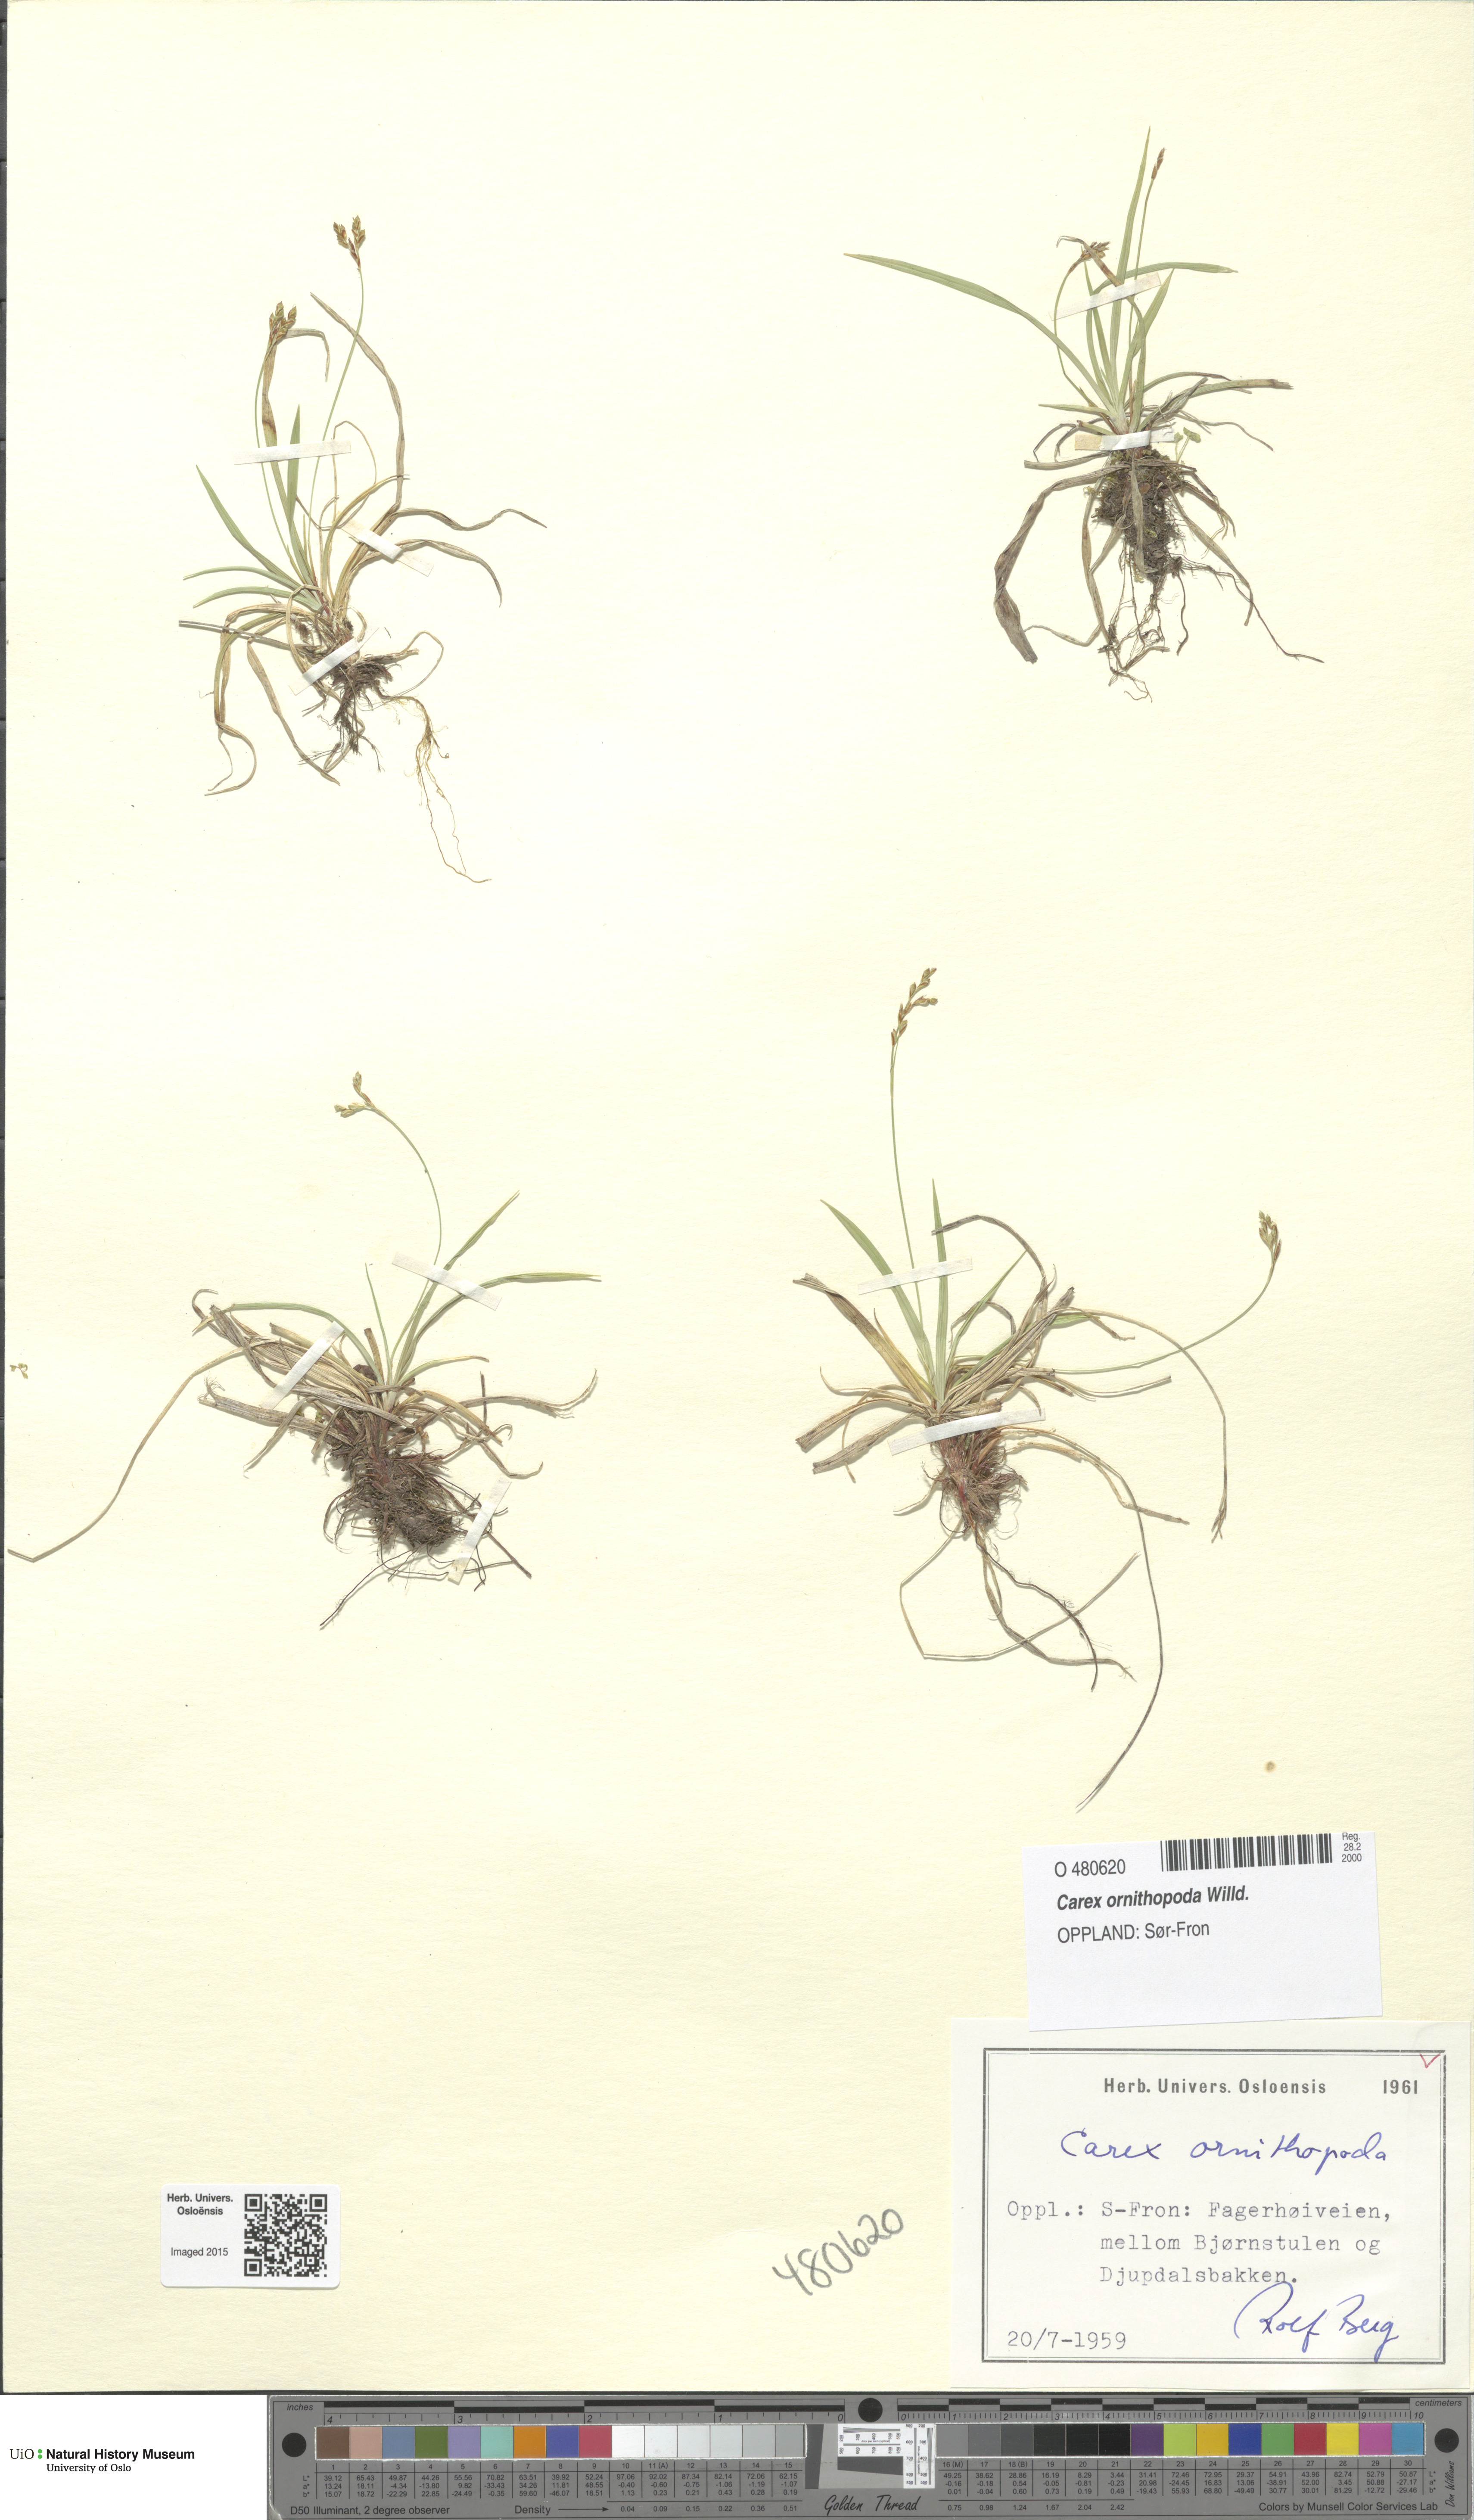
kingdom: Plantae
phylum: Tracheophyta
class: Liliopsida
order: Poales
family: Cyperaceae
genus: Carex
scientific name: Carex ornithopoda
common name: Bird's-foot sedge
